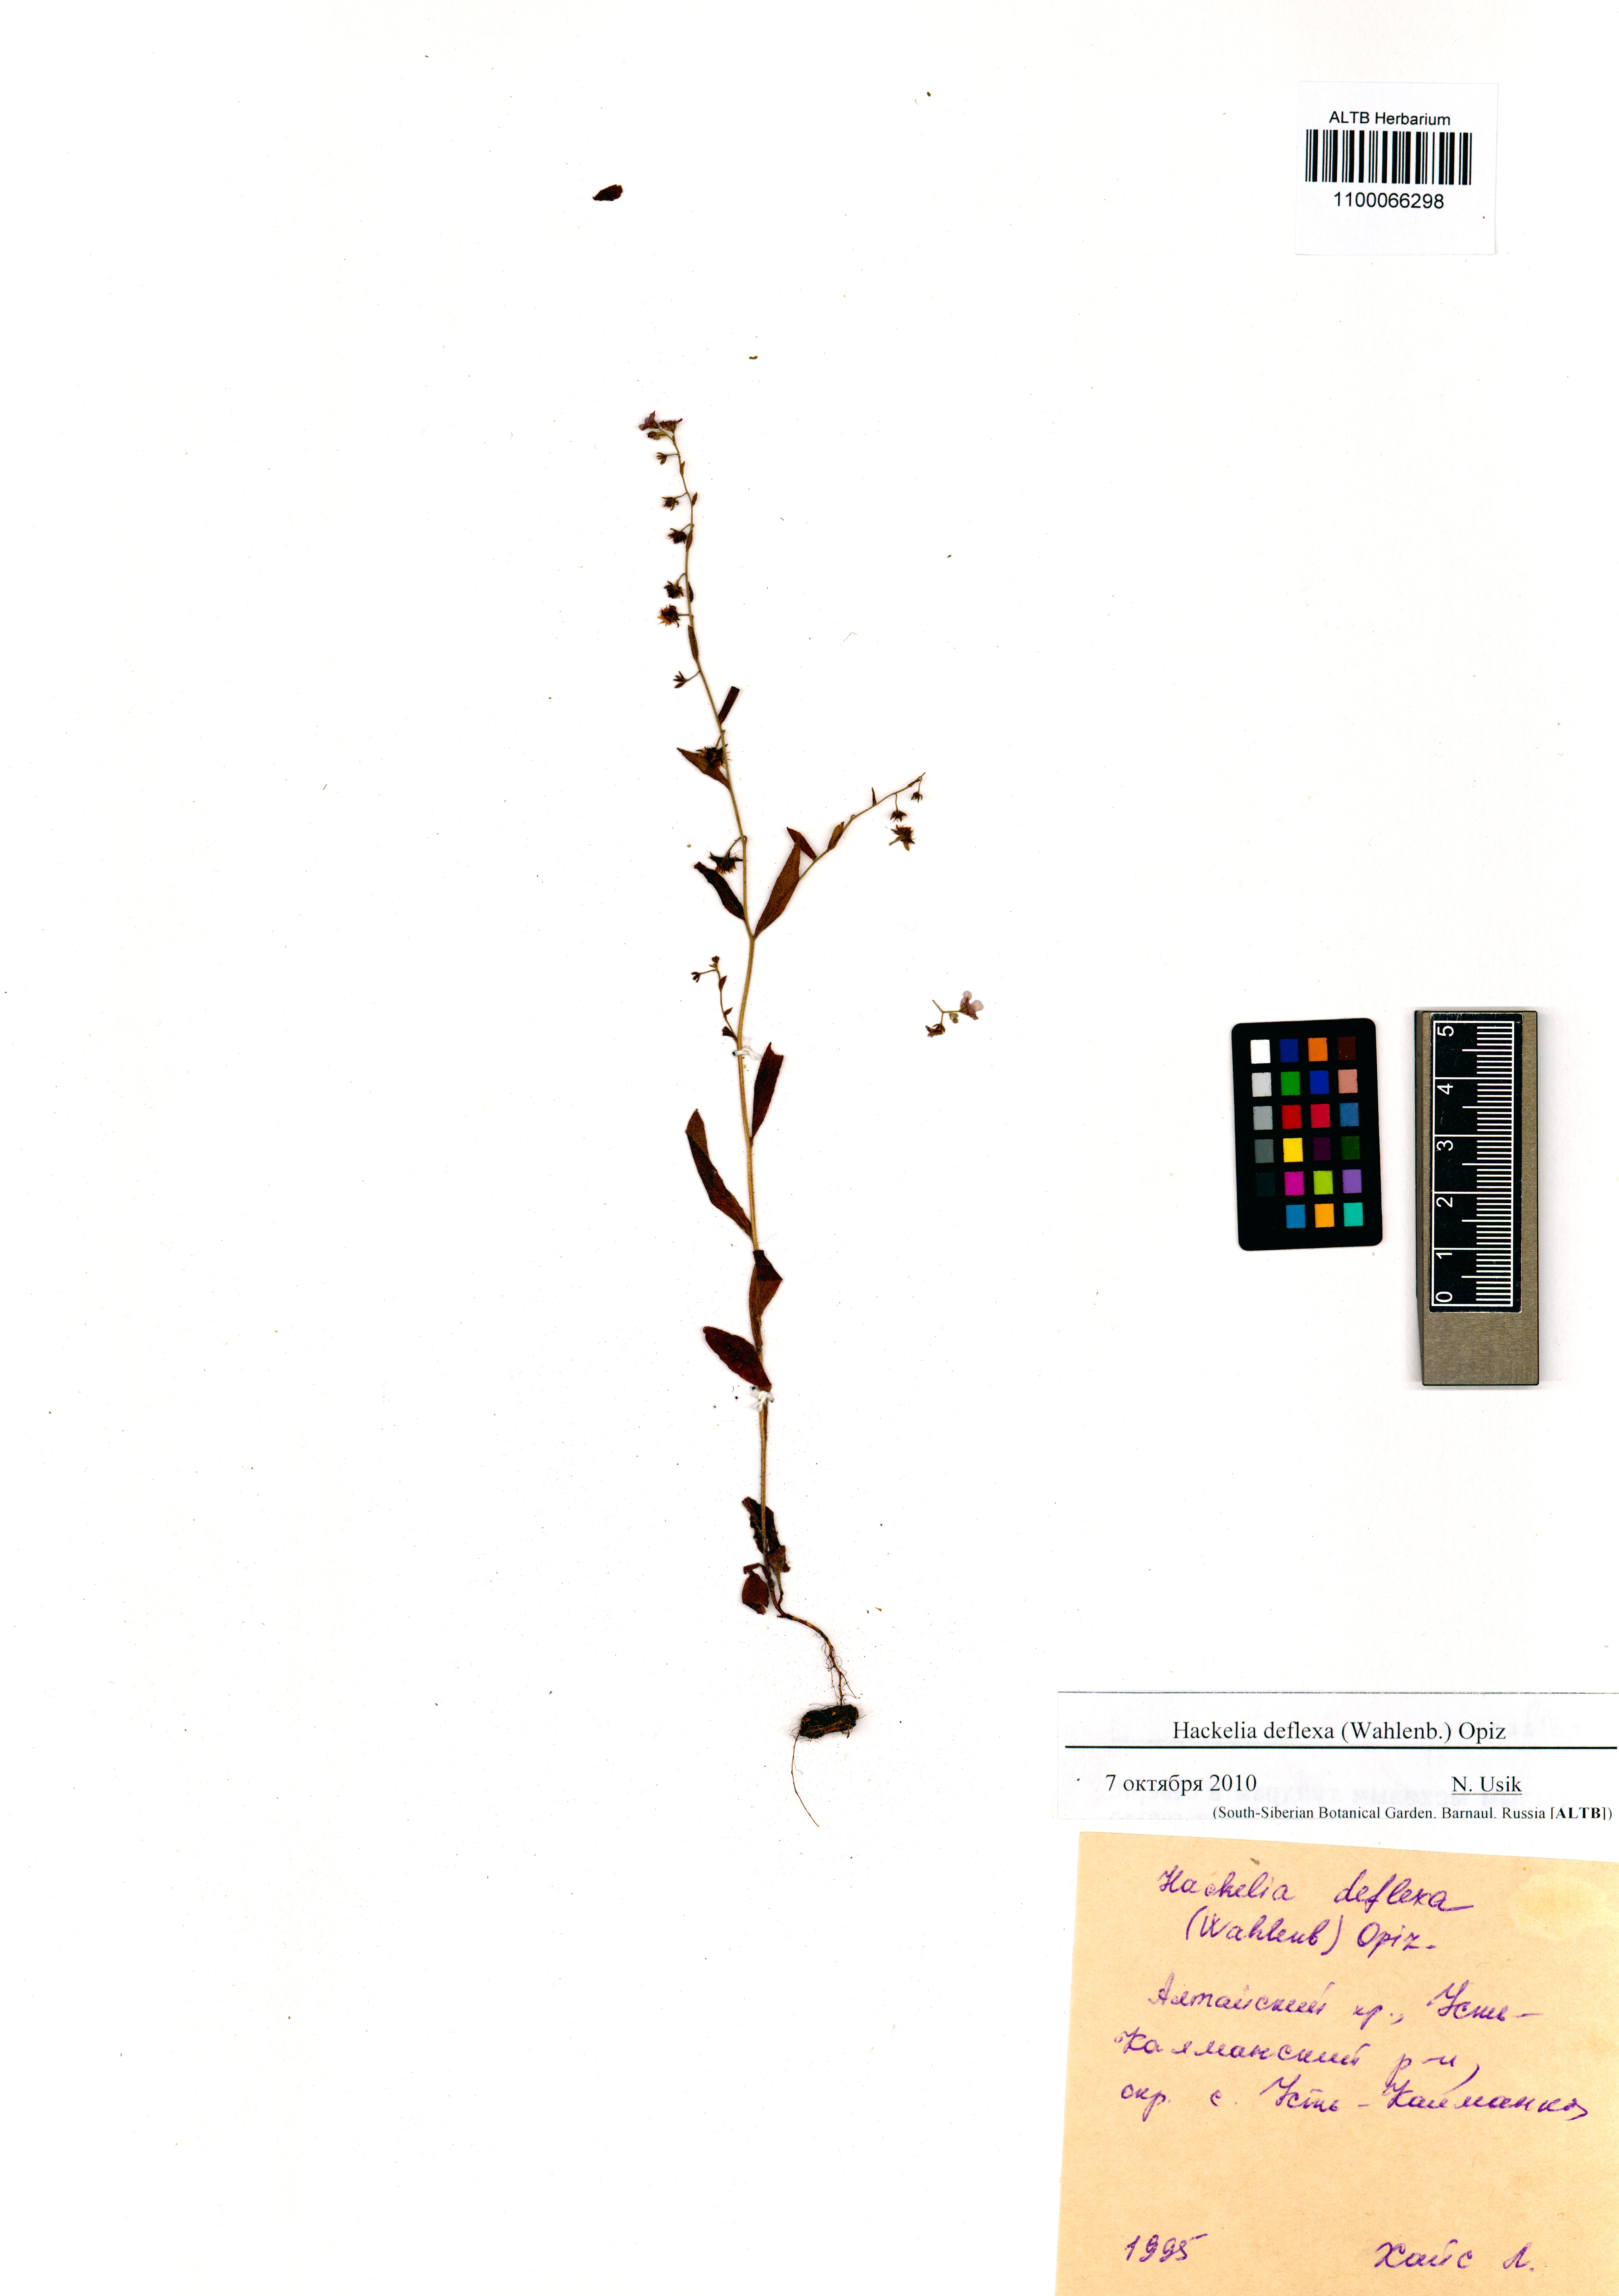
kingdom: Plantae
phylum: Tracheophyta
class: Magnoliopsida
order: Boraginales
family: Boraginaceae
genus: Hackelia
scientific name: Hackelia deflexa
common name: Nodding stickseed
